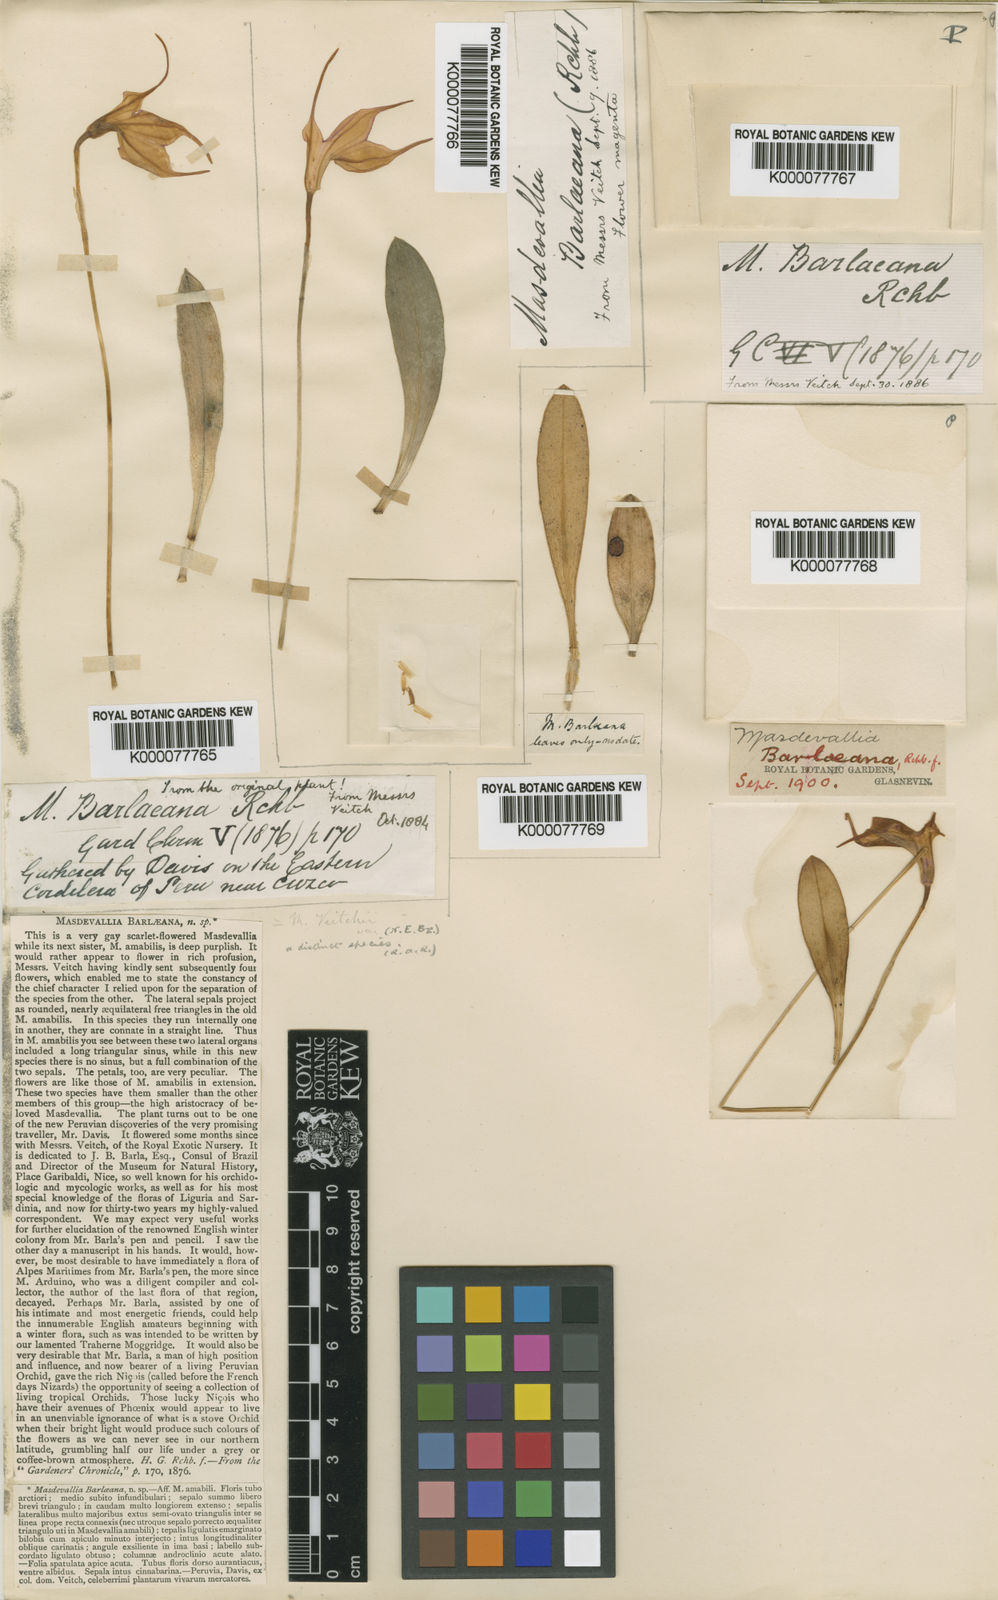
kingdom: Plantae
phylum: Tracheophyta
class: Liliopsida
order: Asparagales
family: Orchidaceae
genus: Masdevallia
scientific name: Masdevallia barlaeana
